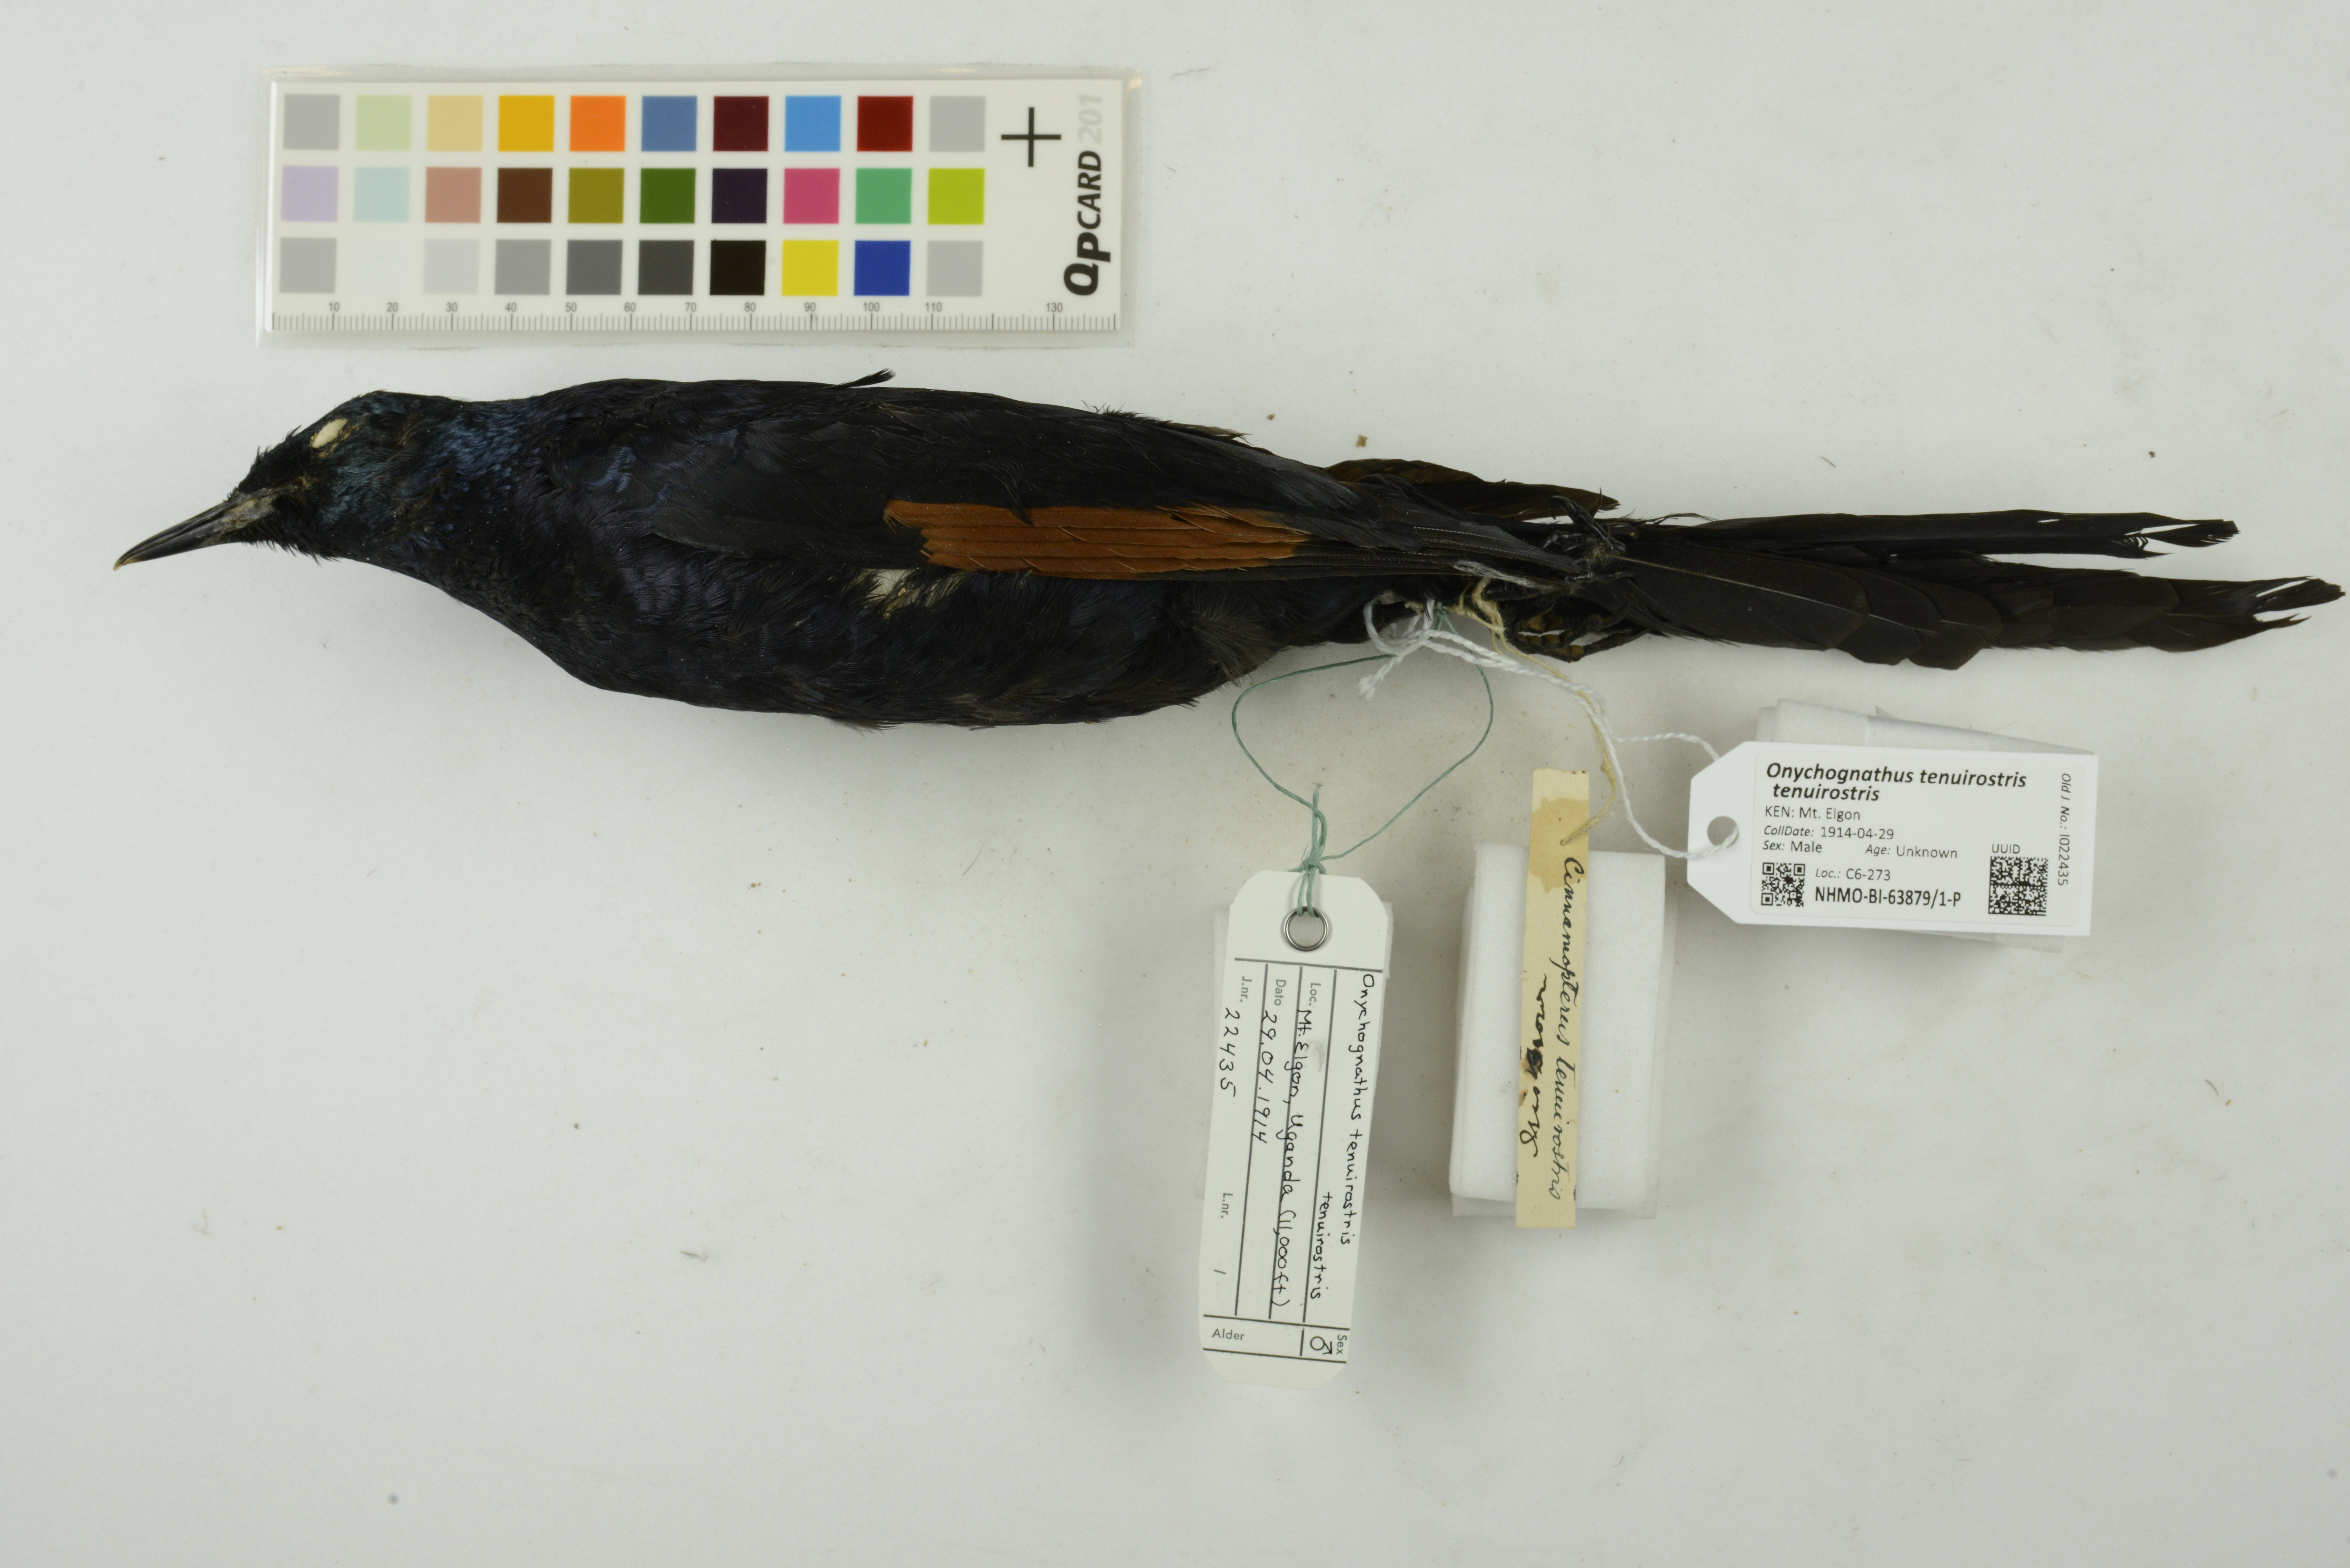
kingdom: Animalia
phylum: Chordata
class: Aves
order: Passeriformes
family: Sturnidae
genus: Onychognathus
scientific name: Onychognathus tenuirostris
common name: Slender-billed starling
